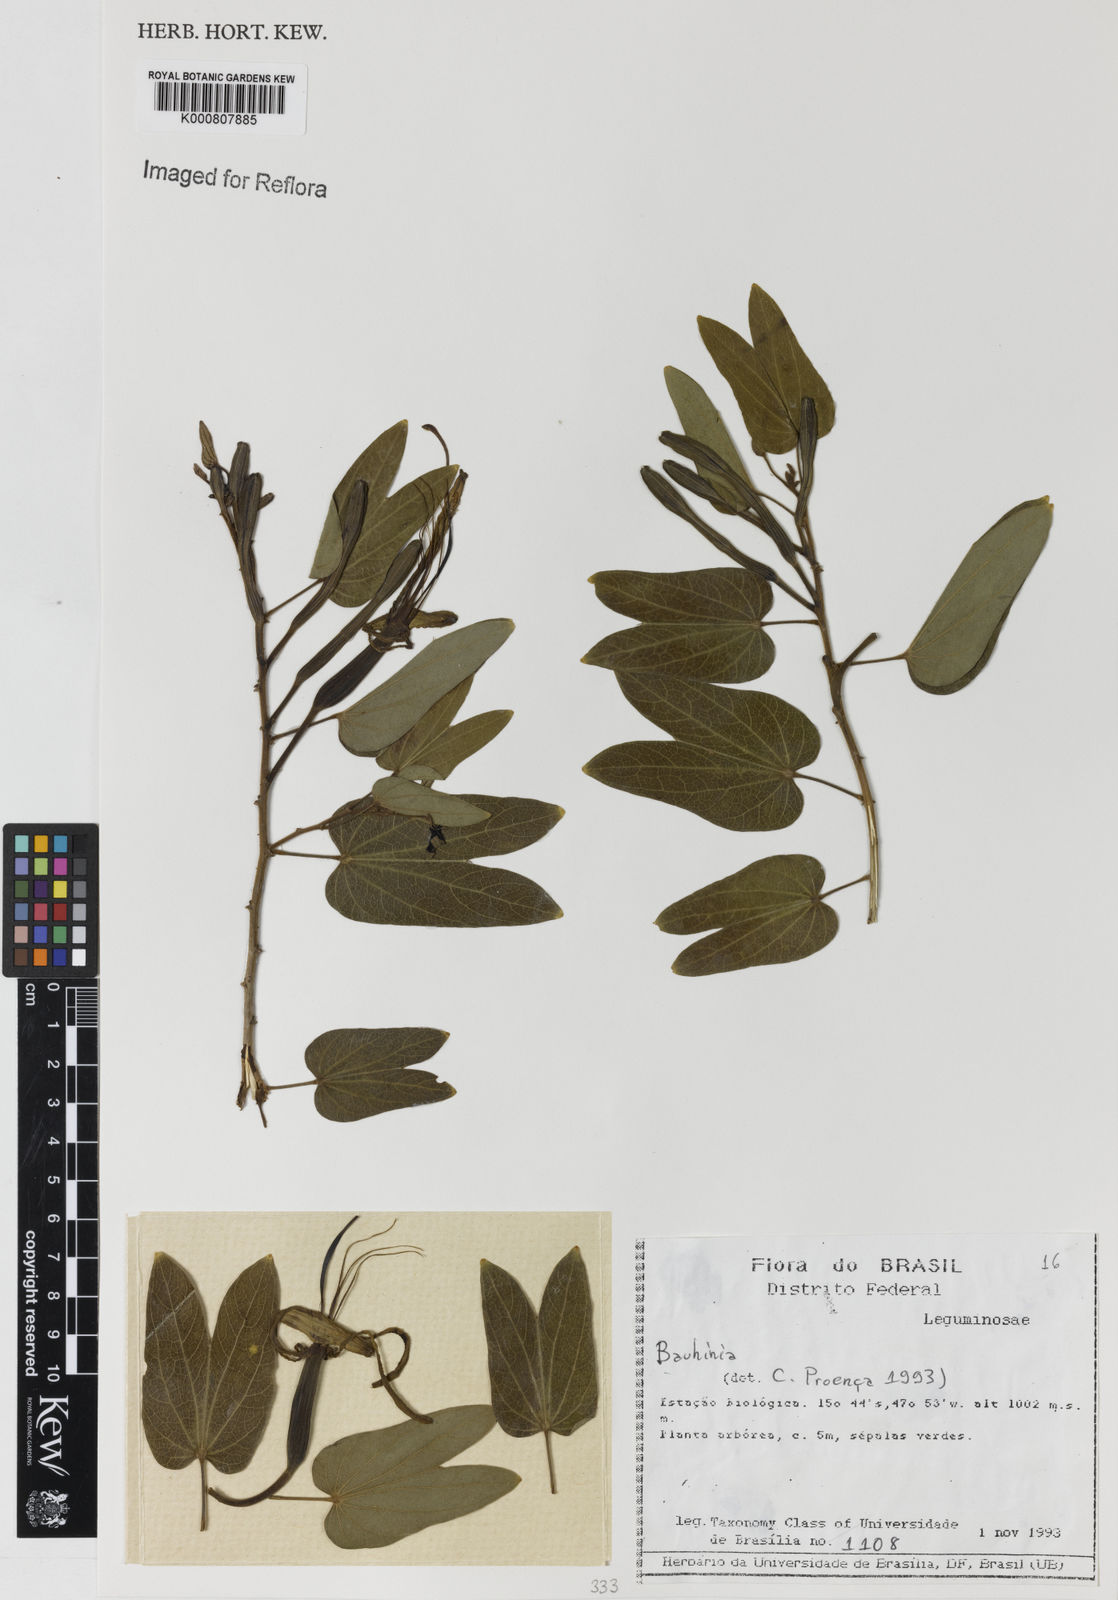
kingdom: Plantae
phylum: Tracheophyta
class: Magnoliopsida
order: Fabales
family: Fabaceae
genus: Bauhinia
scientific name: Bauhinia
